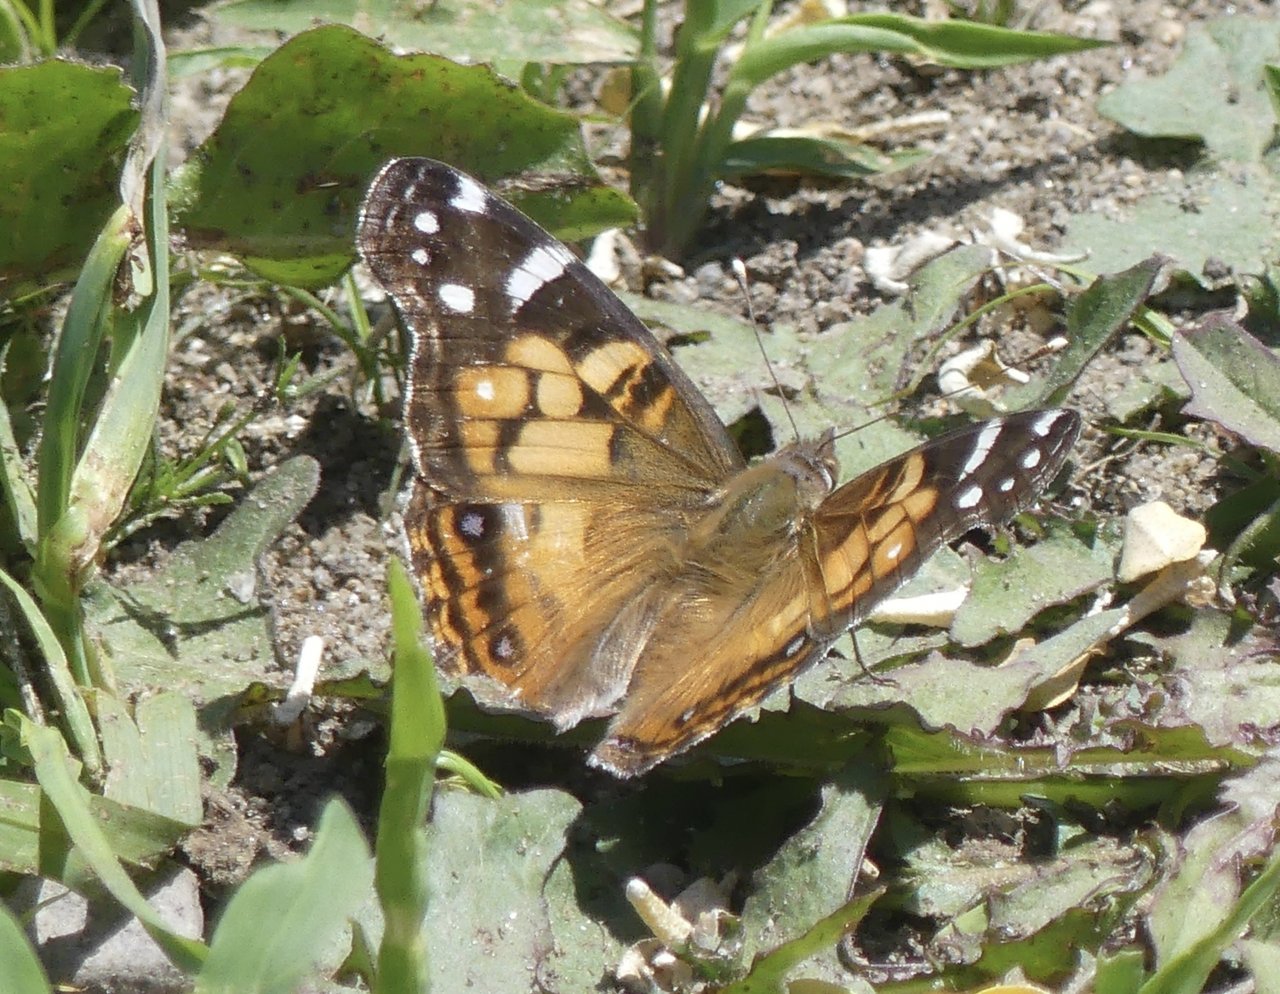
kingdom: Animalia
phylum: Arthropoda
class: Insecta
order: Lepidoptera
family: Nymphalidae
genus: Vanessa
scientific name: Vanessa virginiensis
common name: American Lady
